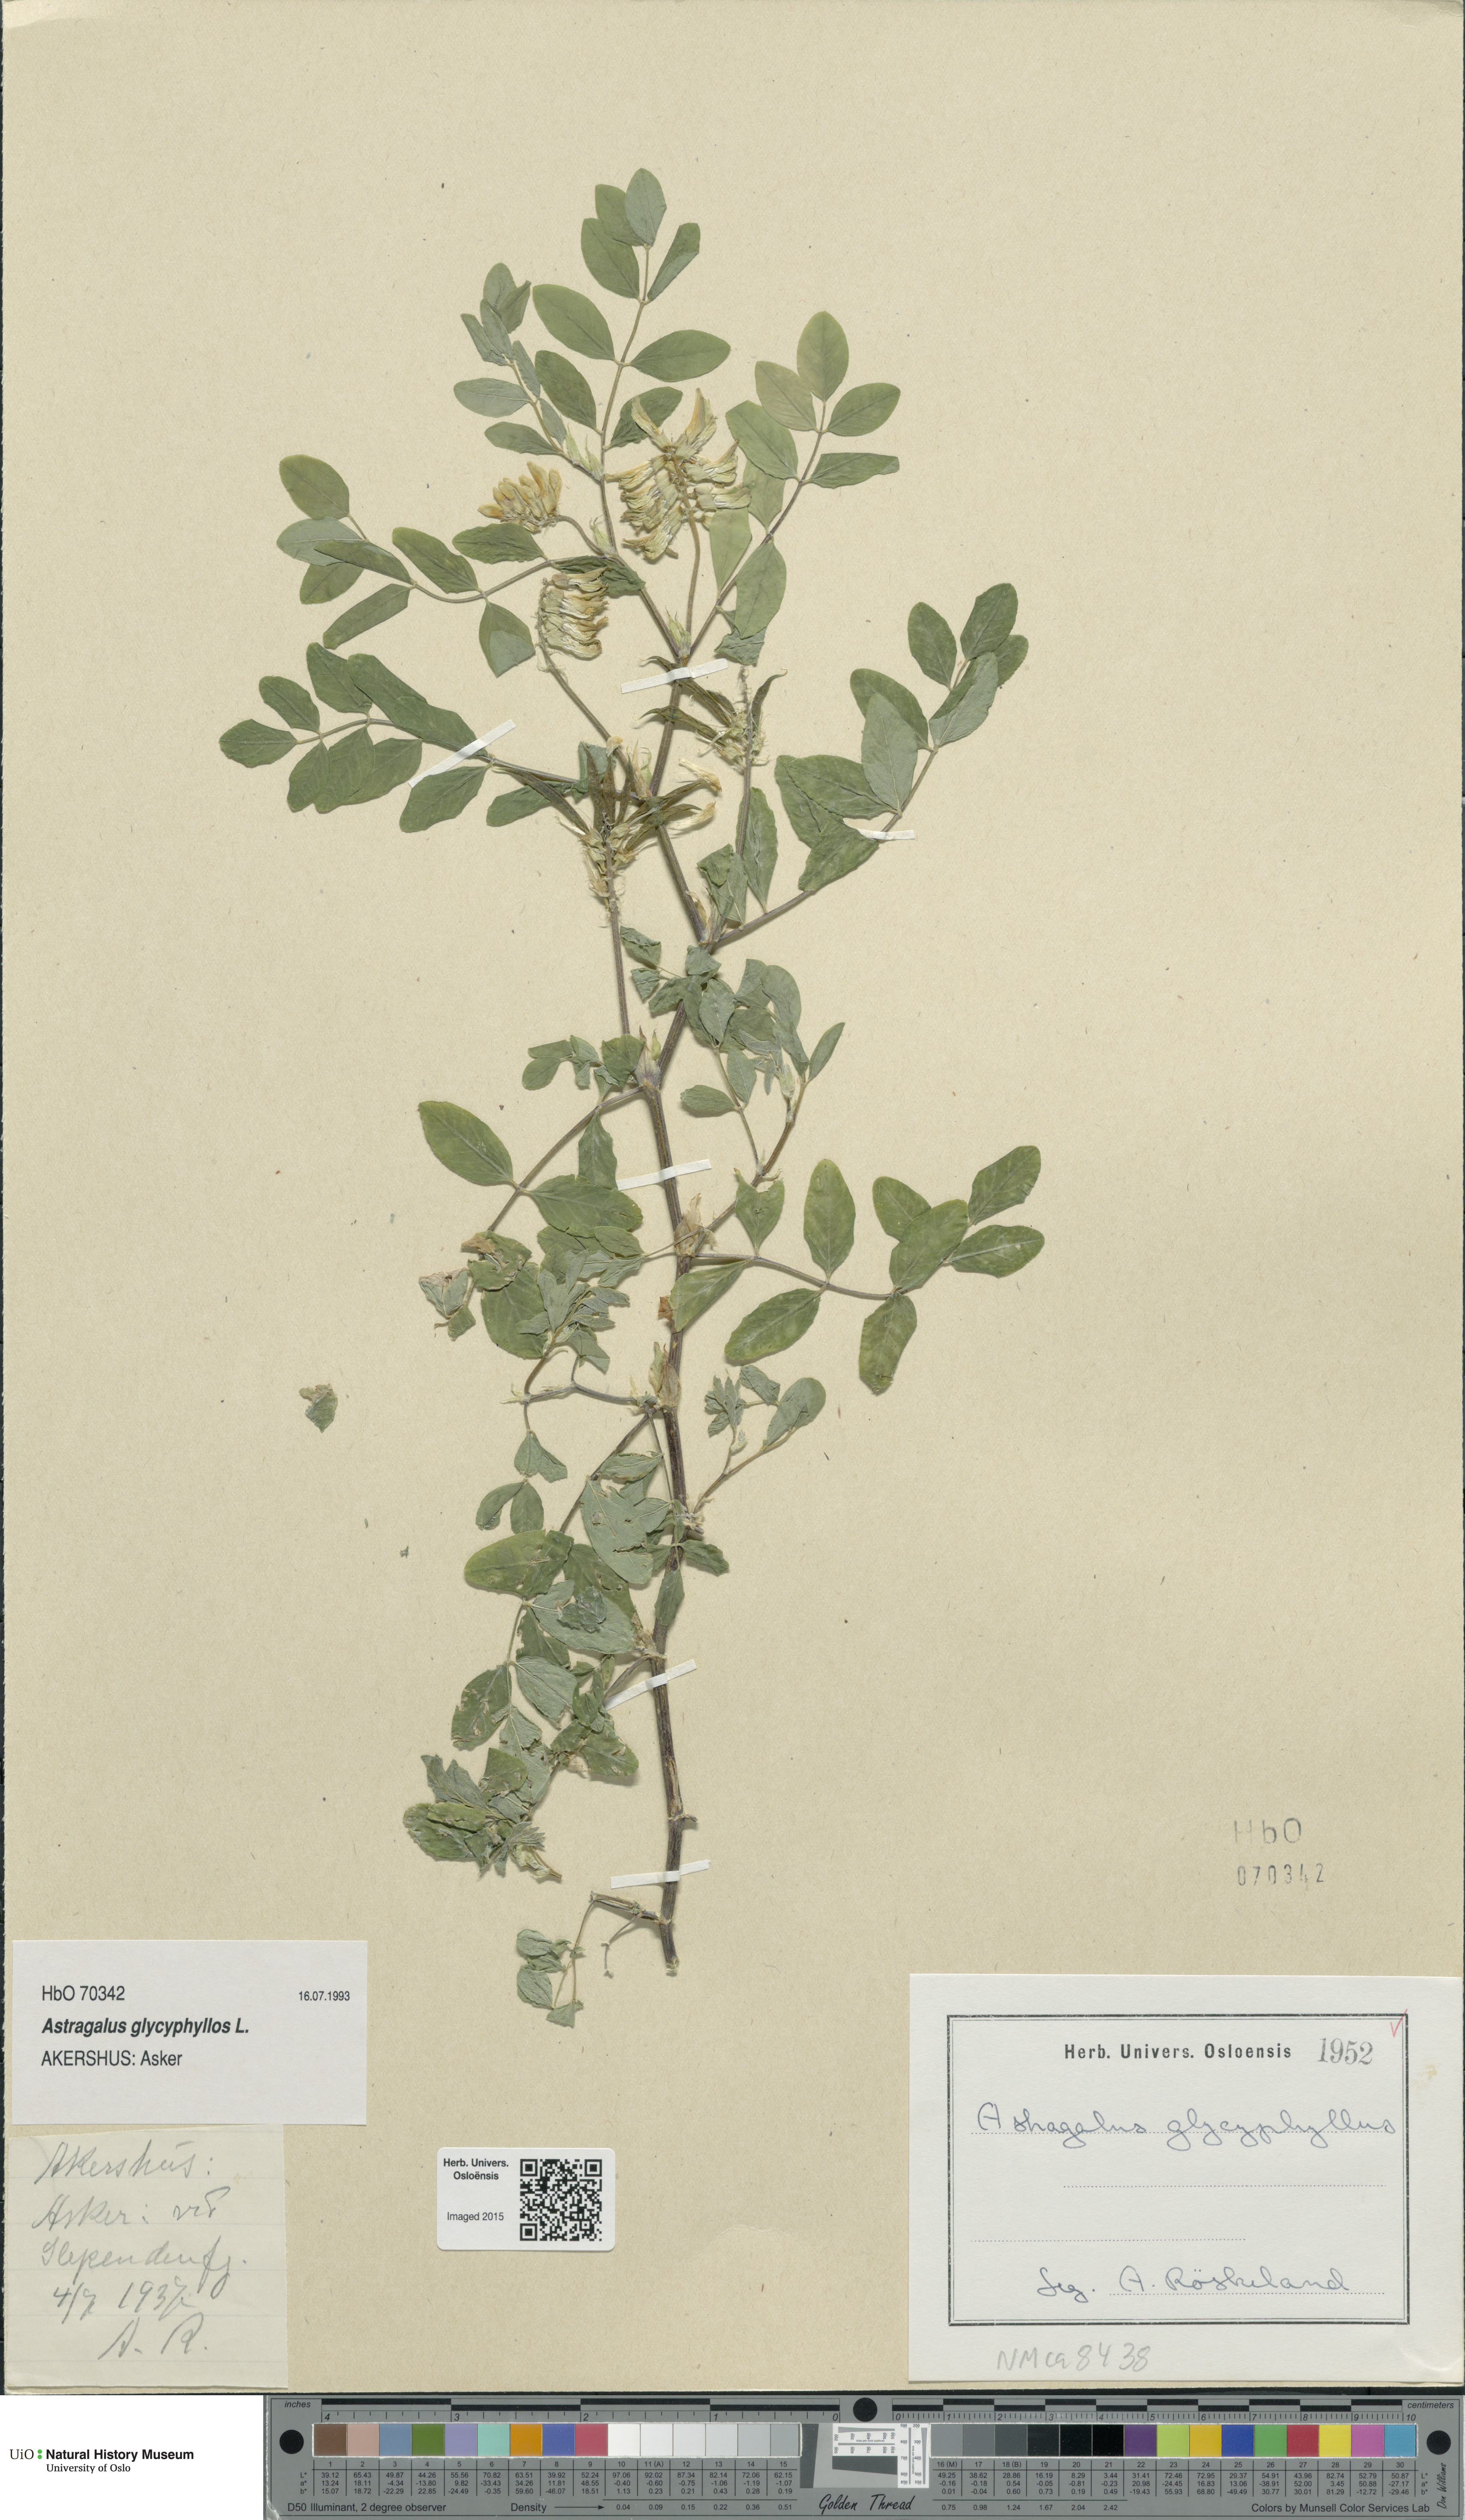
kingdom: Plantae
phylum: Tracheophyta
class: Magnoliopsida
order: Fabales
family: Fabaceae
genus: Astragalus
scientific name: Astragalus glycyphyllos
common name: Wild liquorice
